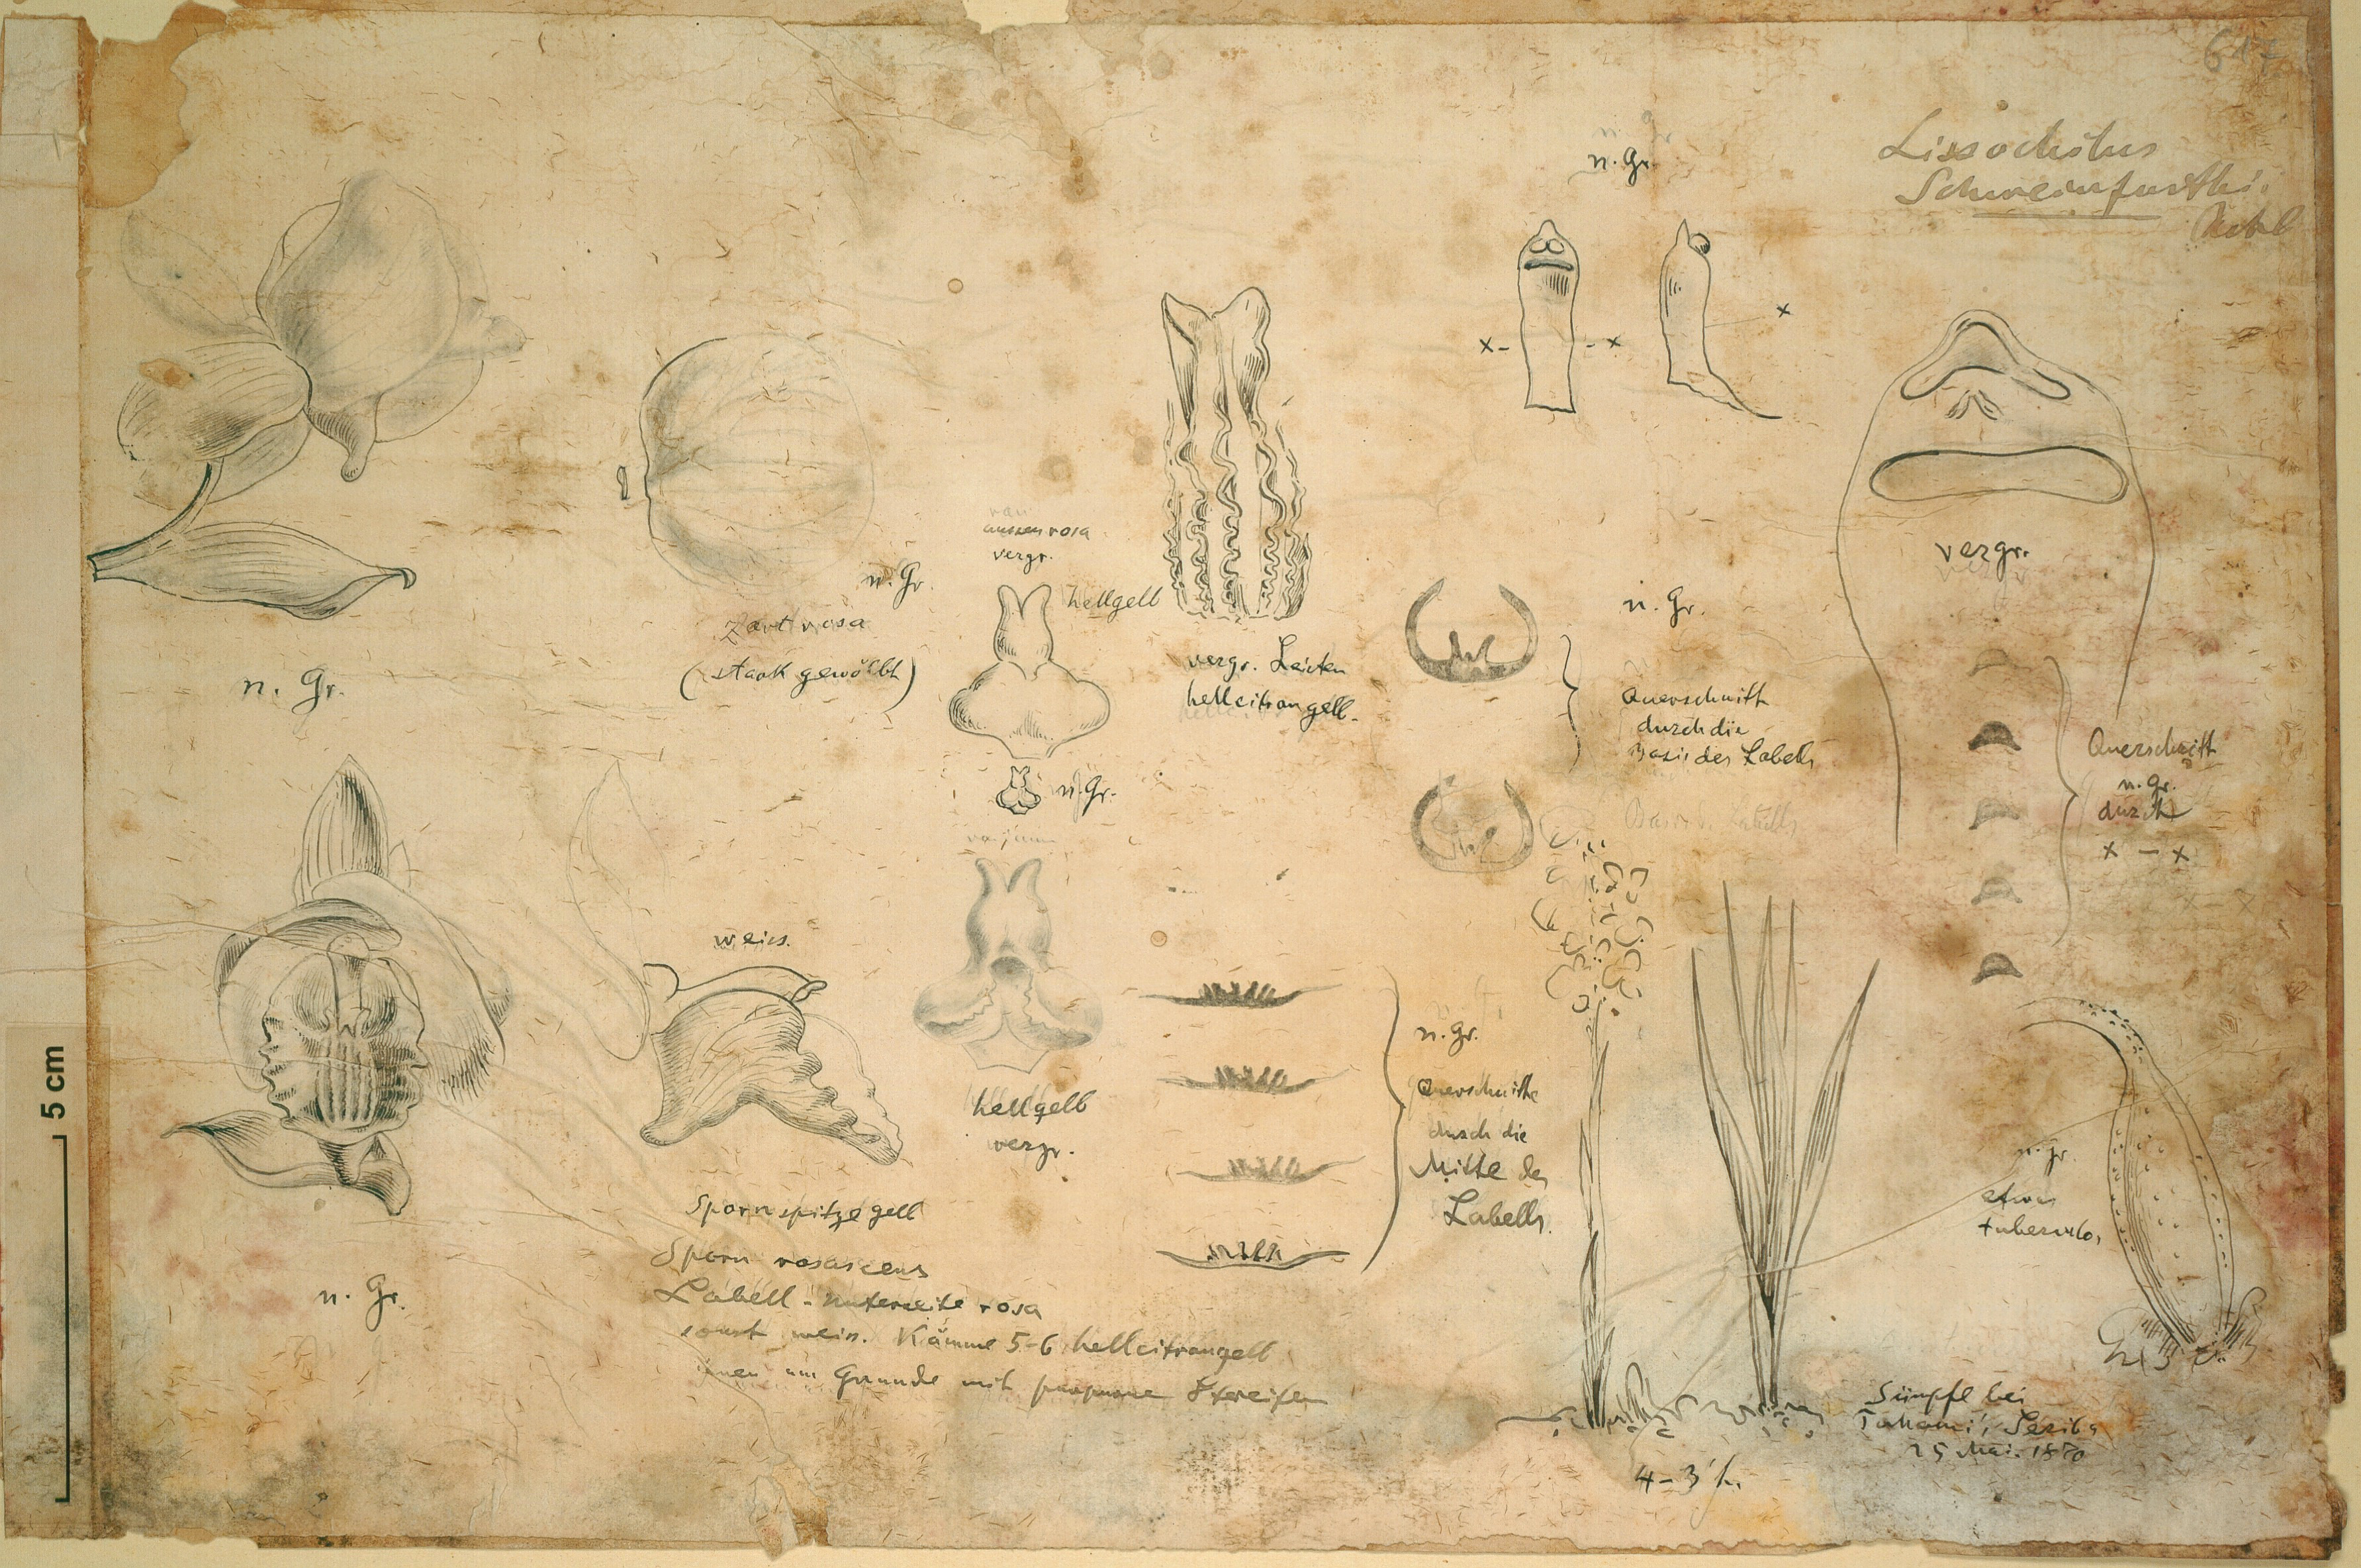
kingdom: Plantae
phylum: Tracheophyta
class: Liliopsida
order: Asparagales
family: Orchidaceae
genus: Eulophia
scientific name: Eulophia latilabris
